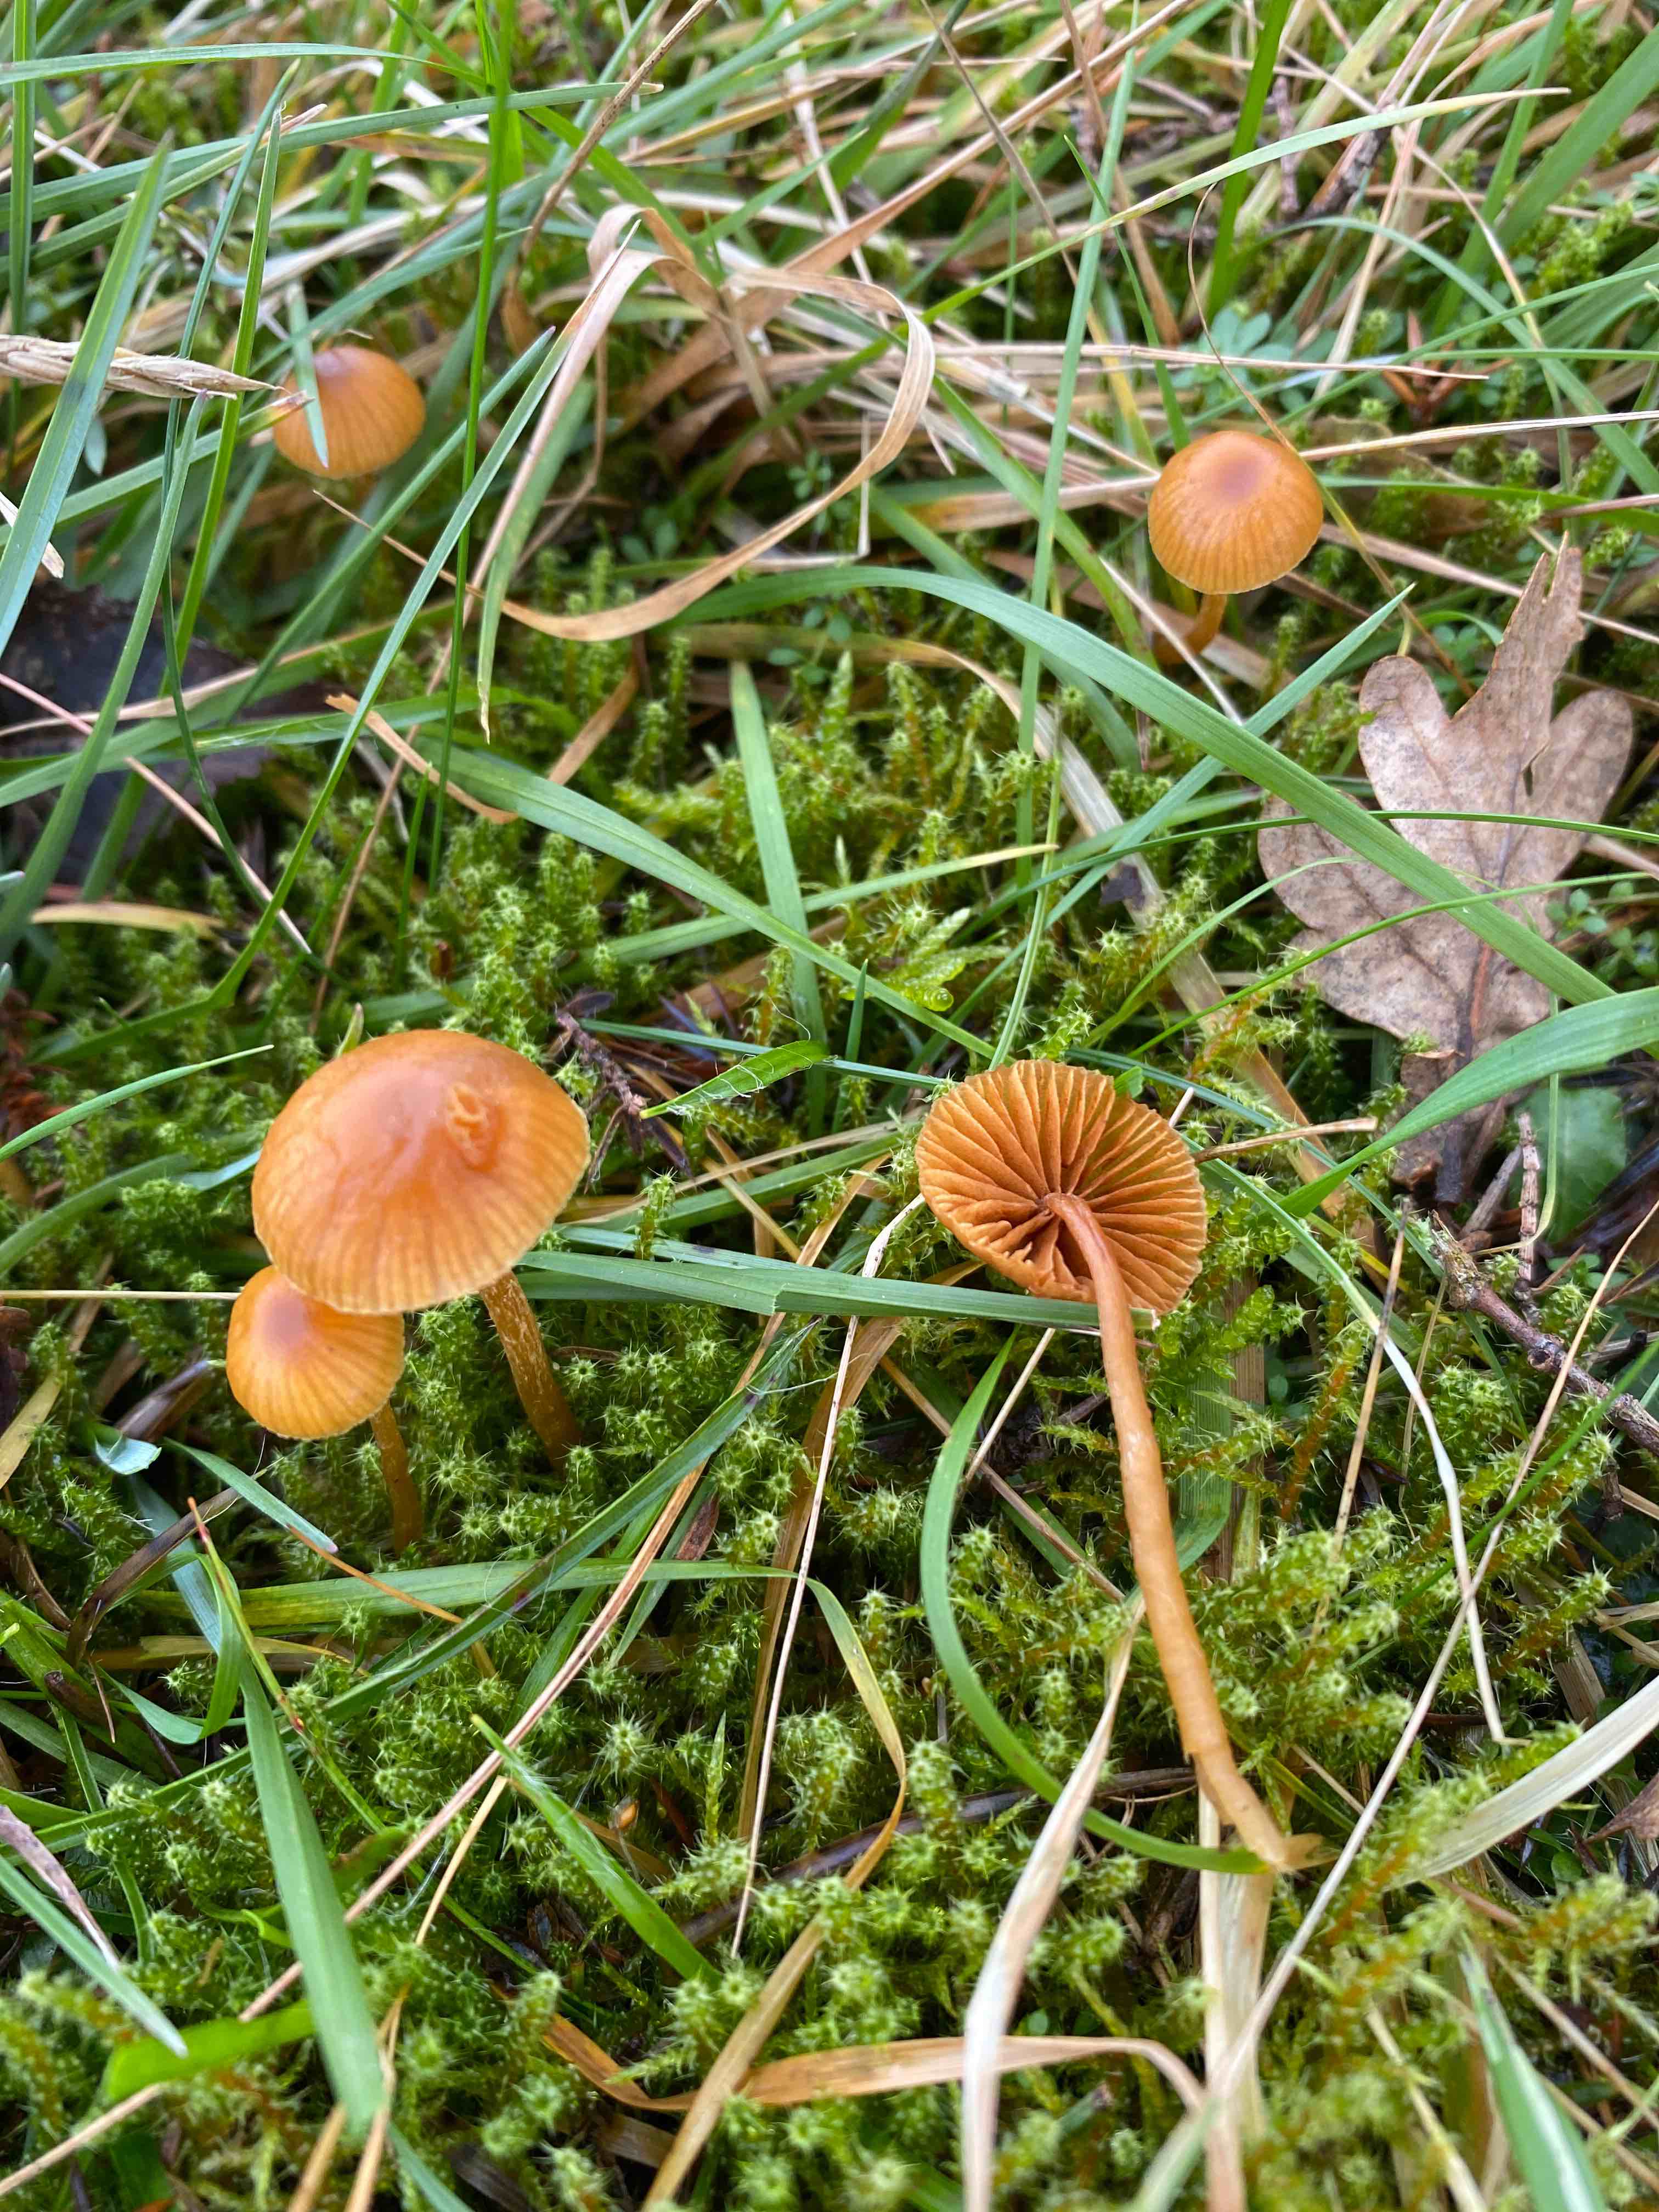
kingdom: Fungi
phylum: Basidiomycota
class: Agaricomycetes
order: Agaricales
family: Hymenogastraceae
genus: Galerina
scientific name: Galerina
